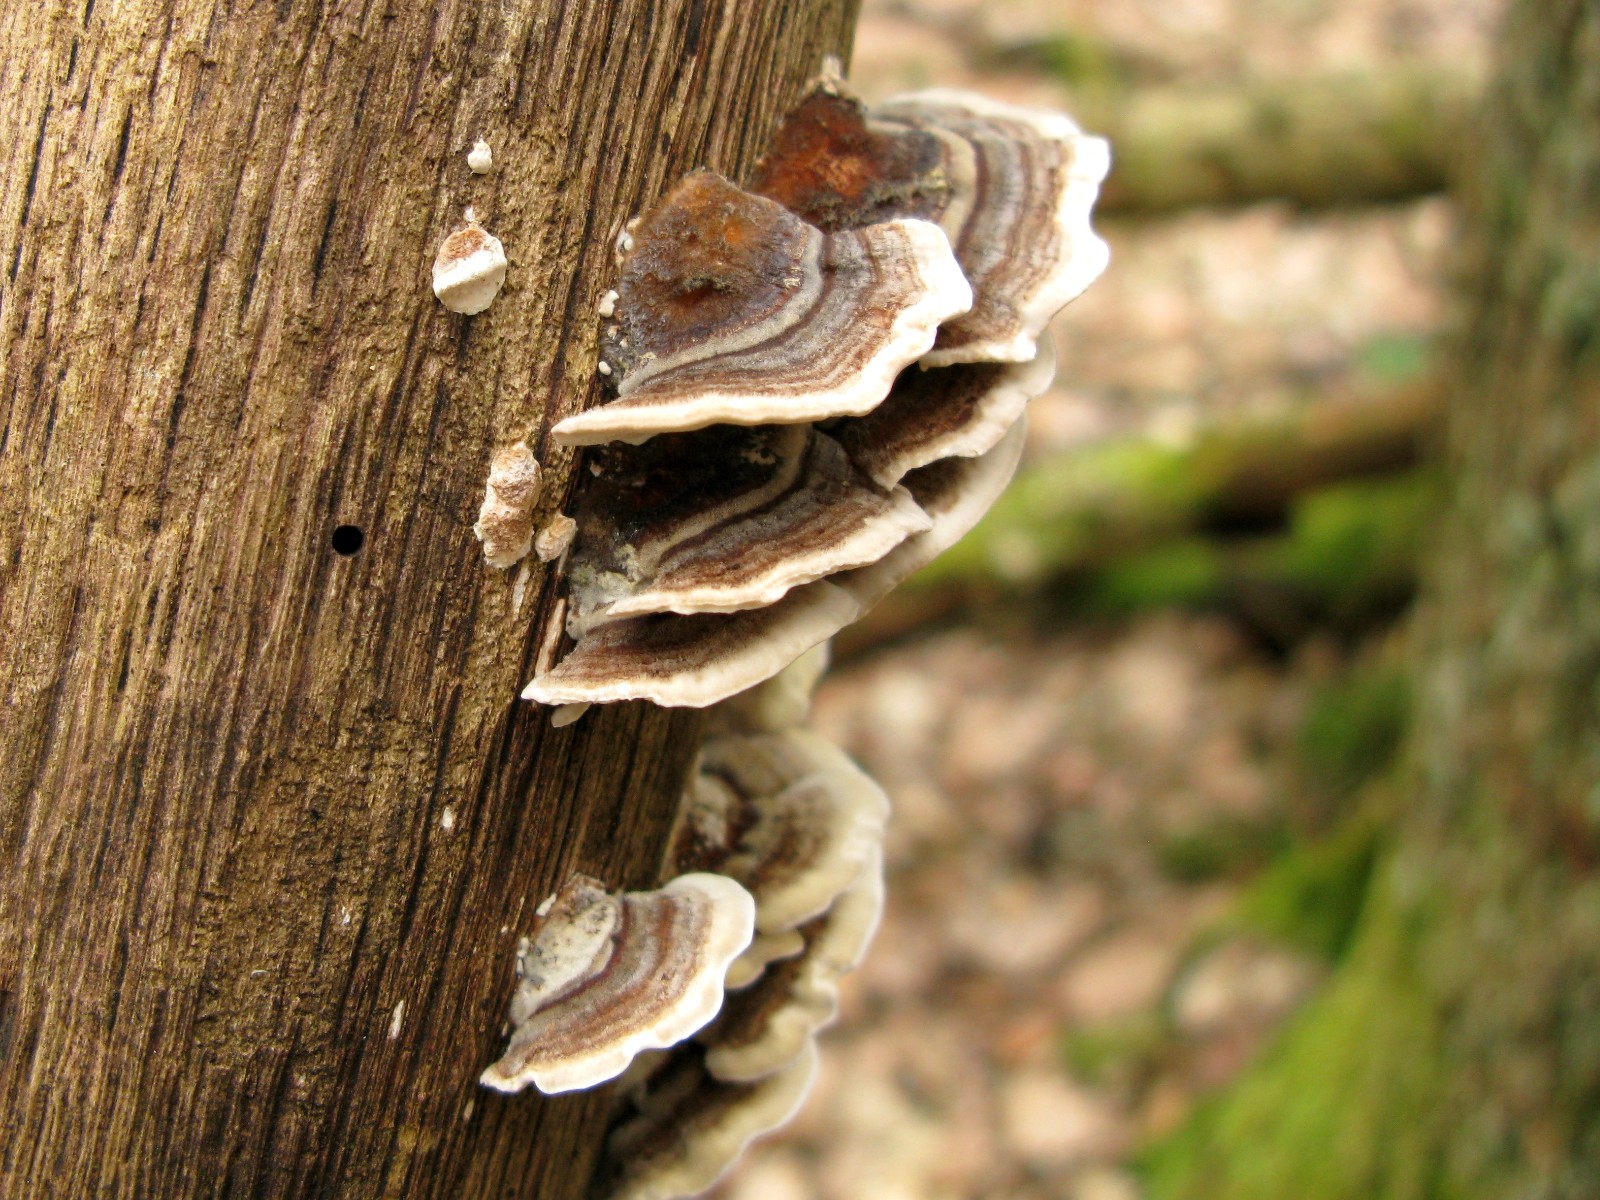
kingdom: Fungi
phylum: Basidiomycota
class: Agaricomycetes
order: Polyporales
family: Polyporaceae
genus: Trametes
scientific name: Trametes versicolor
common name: broget læderporesvamp
